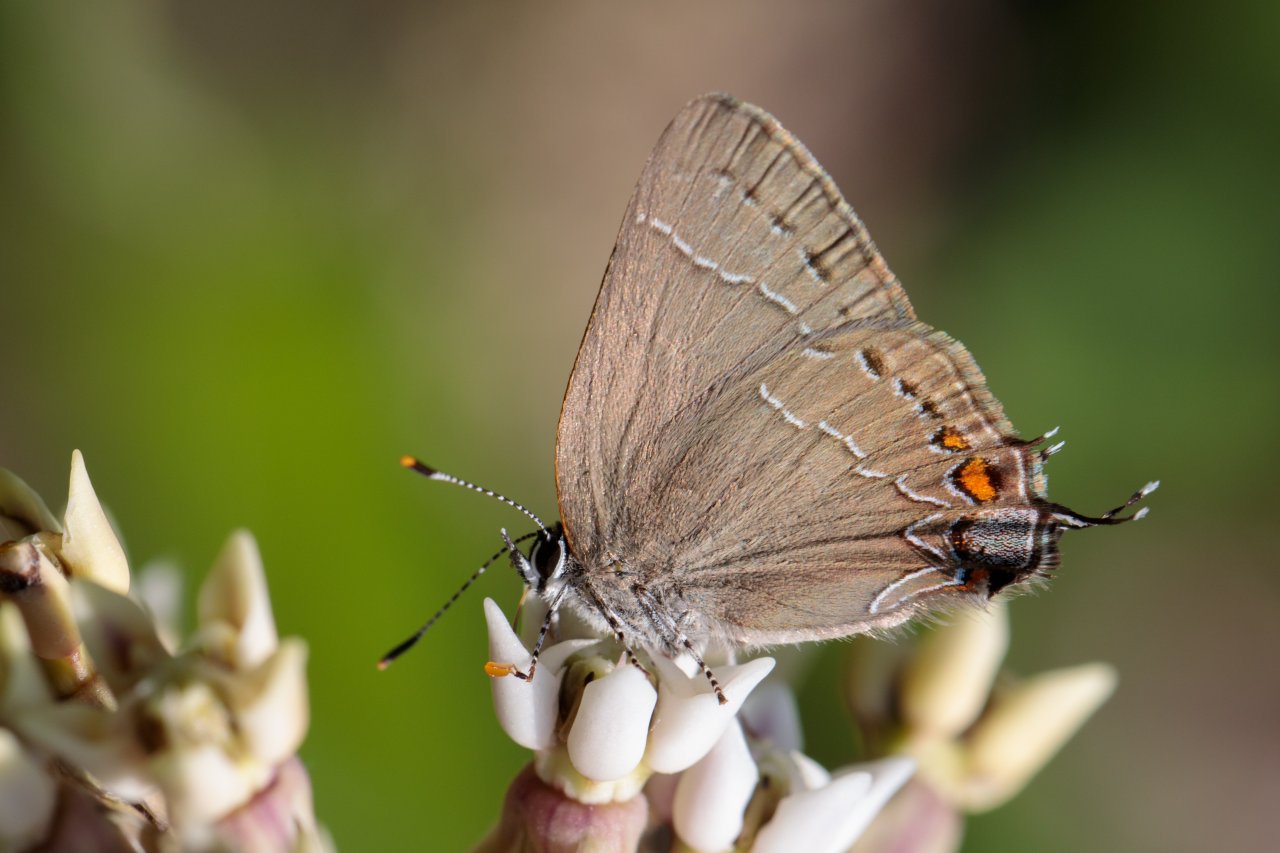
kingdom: Animalia
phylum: Arthropoda
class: Insecta
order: Lepidoptera
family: Lycaenidae
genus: Fixsenia
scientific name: Fixsenia favonius
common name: Oak Hairstreak
